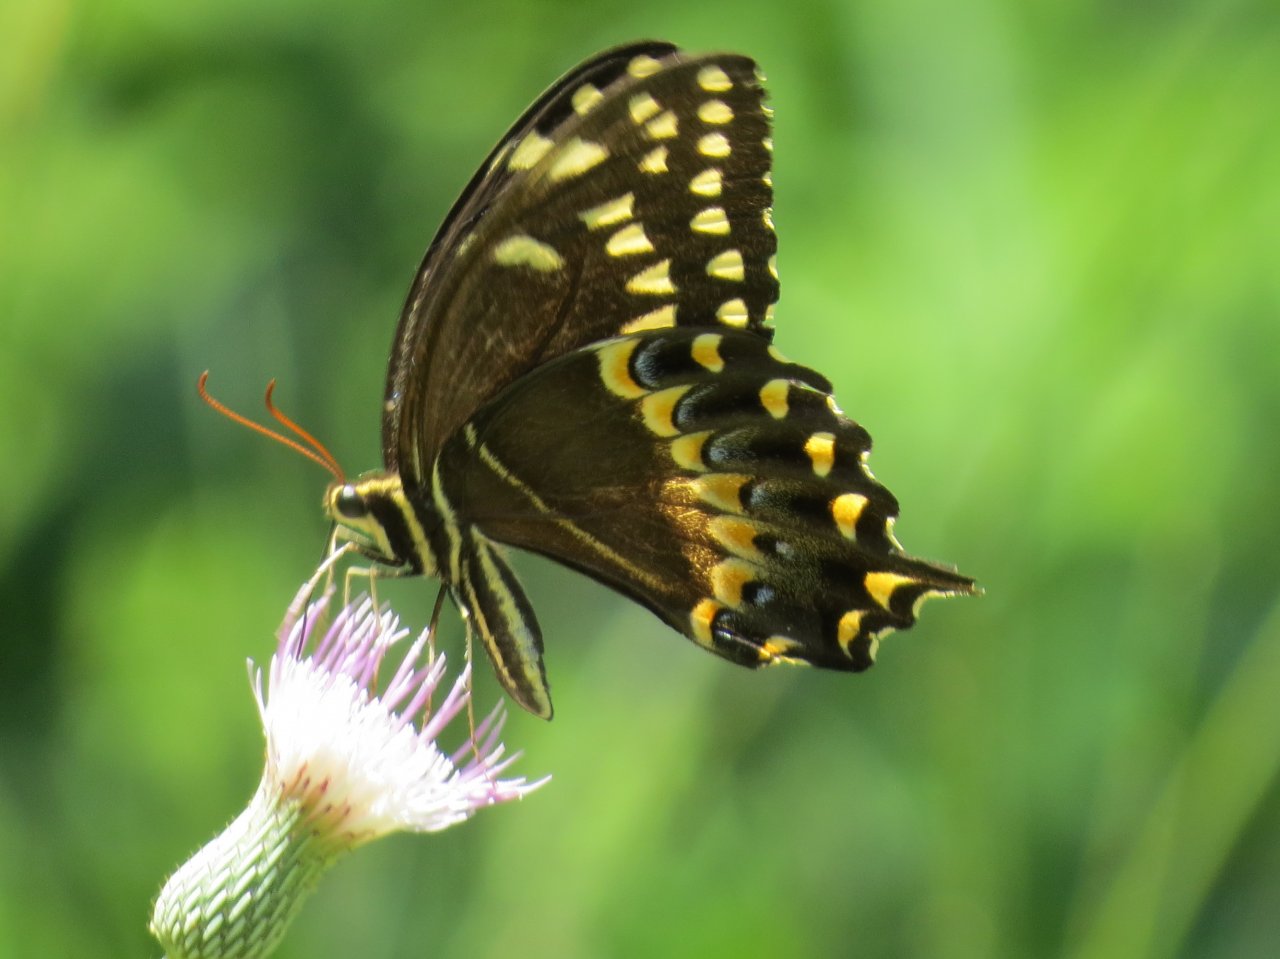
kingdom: Animalia
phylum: Arthropoda
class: Insecta
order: Lepidoptera
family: Papilionidae
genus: Pterourus
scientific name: Pterourus palamedes
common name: Palamedes Swallowtail
